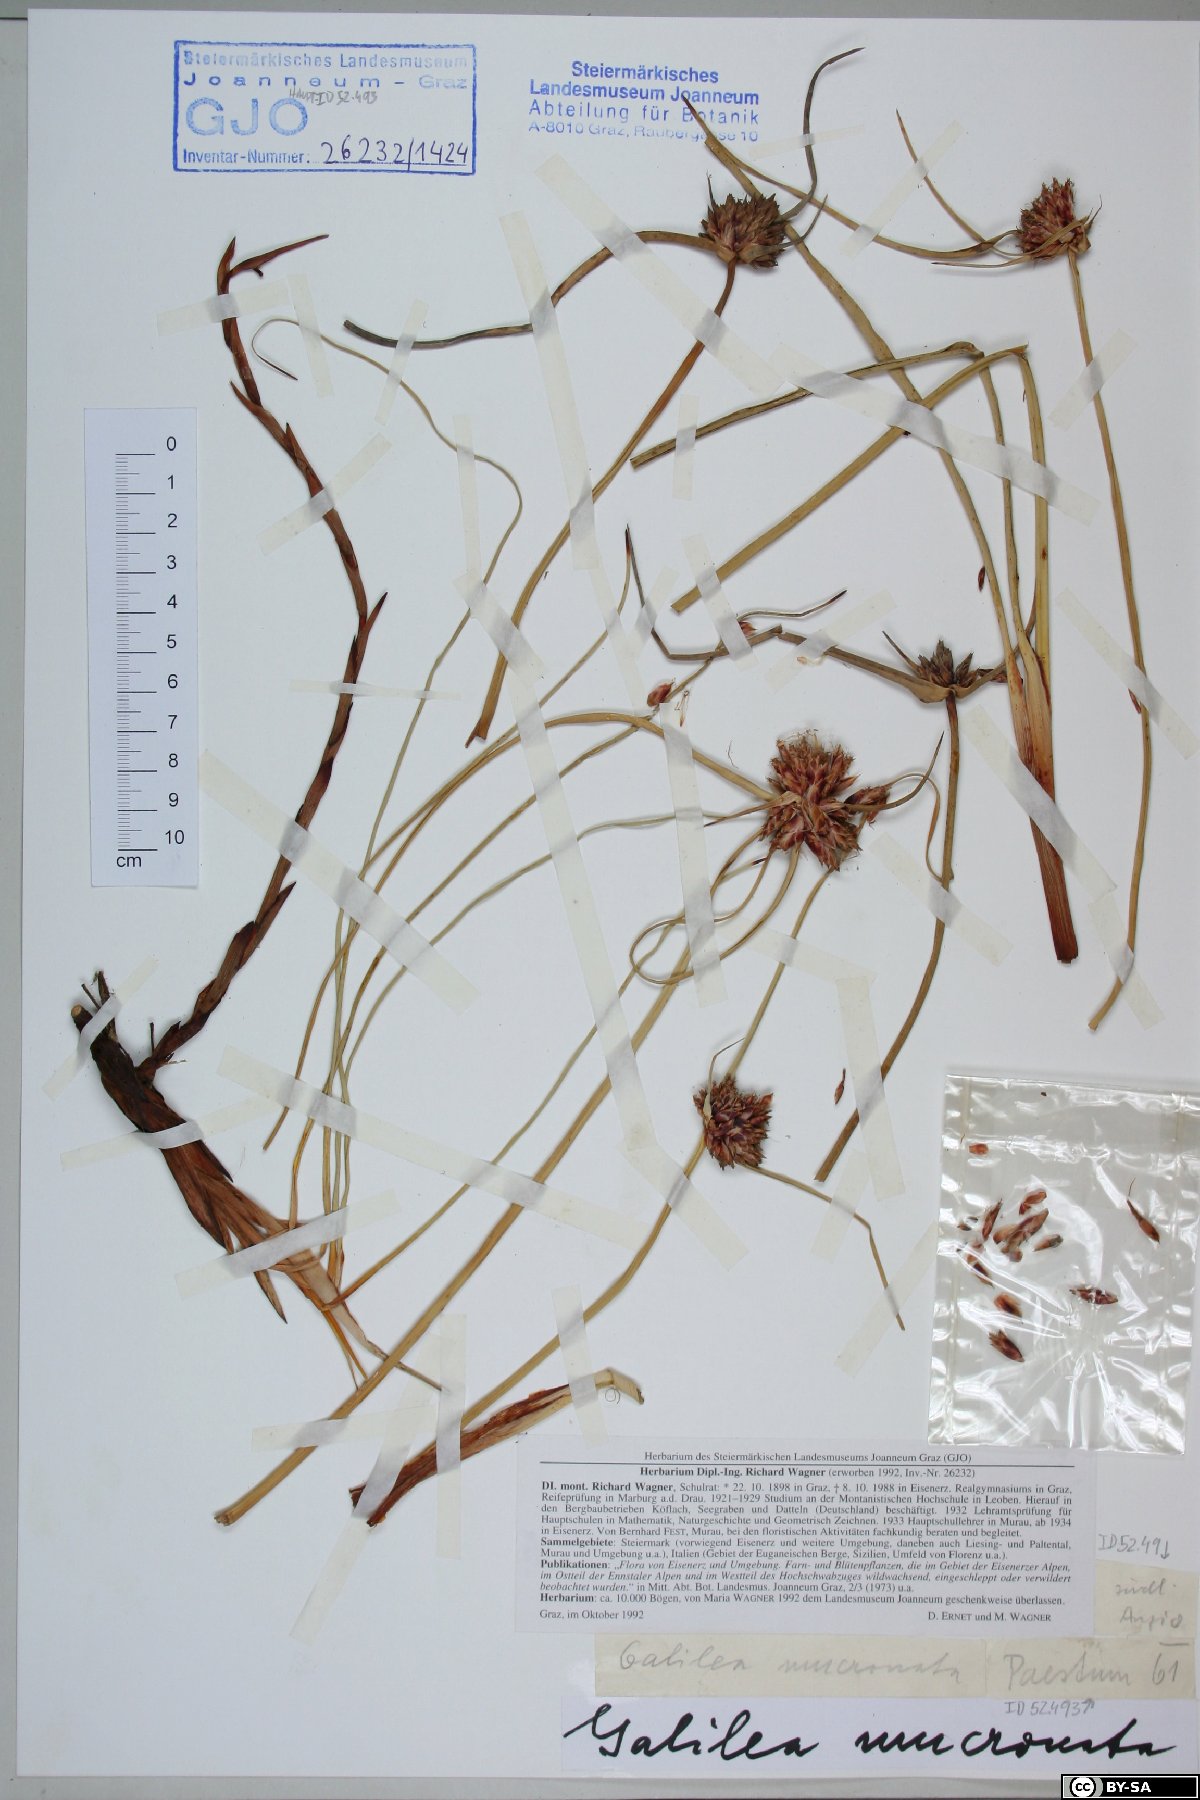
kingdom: Plantae
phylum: Tracheophyta
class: Liliopsida
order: Poales
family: Cyperaceae
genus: Cyperus
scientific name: Cyperus capitatus
